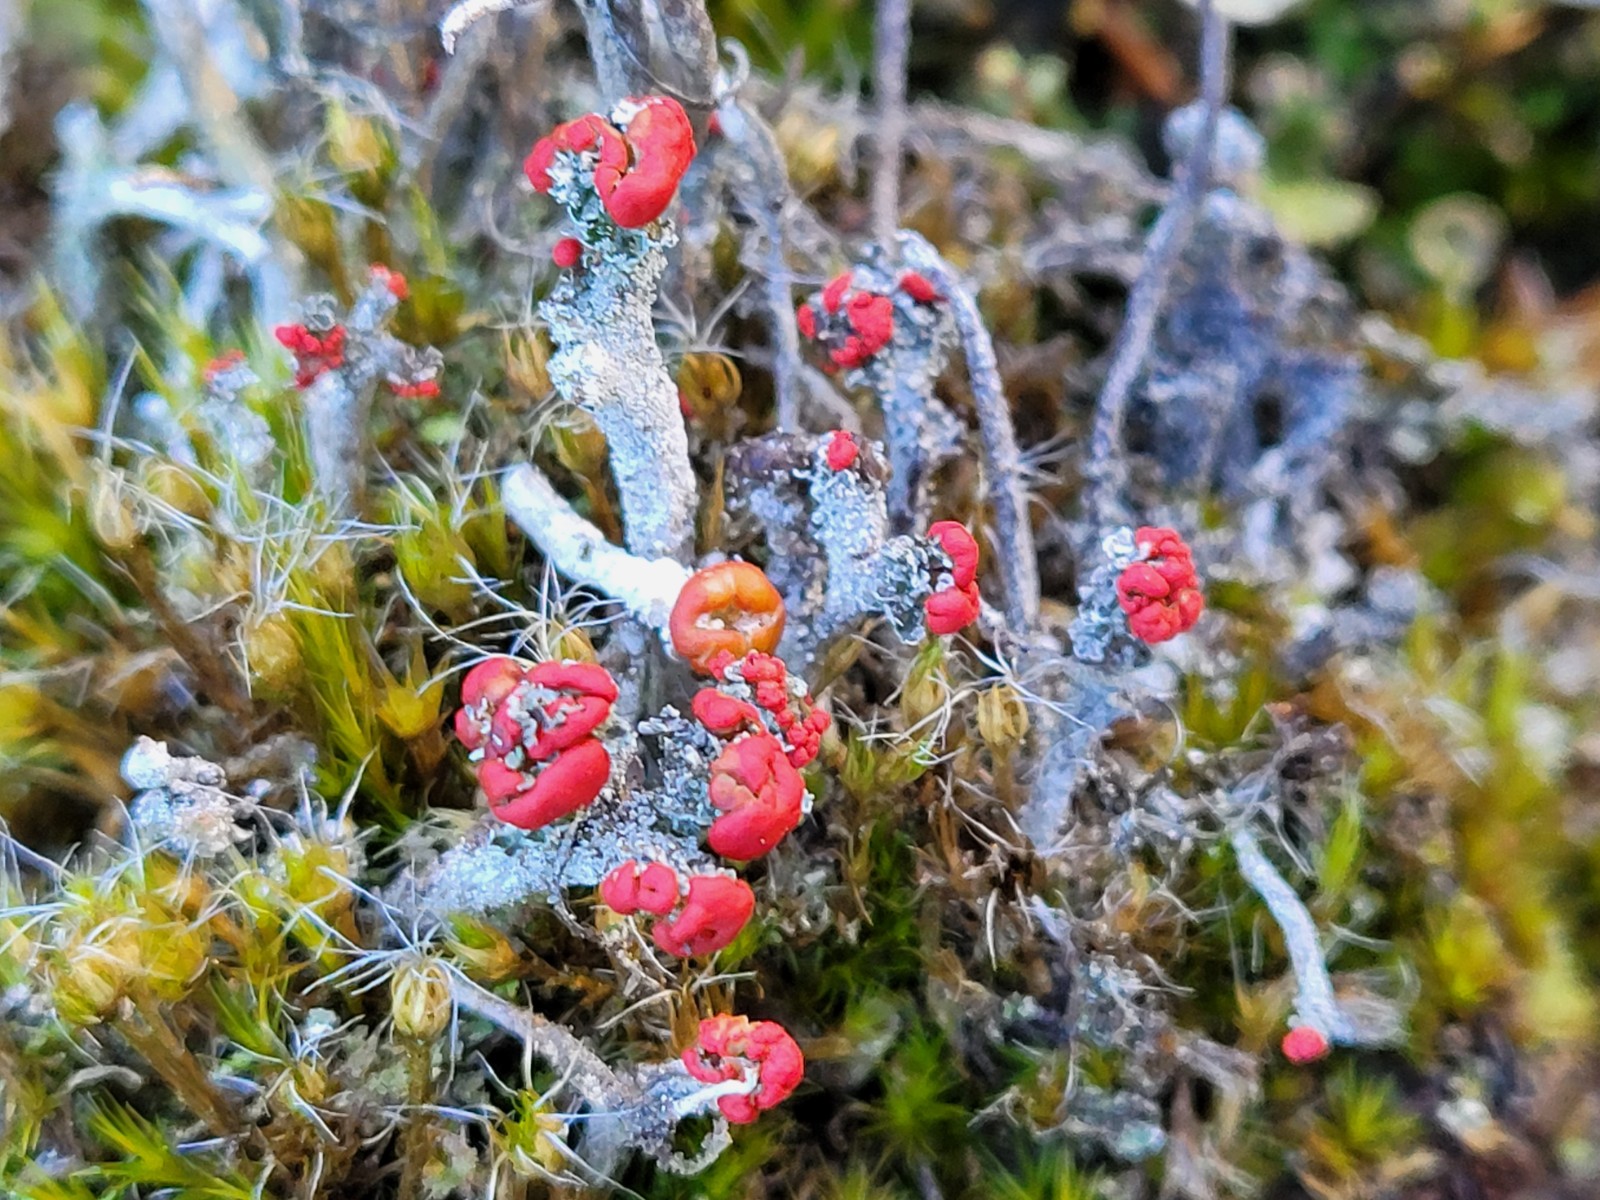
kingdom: Fungi
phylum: Ascomycota
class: Lecanoromycetes
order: Lecanorales
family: Cladoniaceae
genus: Cladonia
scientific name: Cladonia floerkeana
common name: lakrød bægerlav
